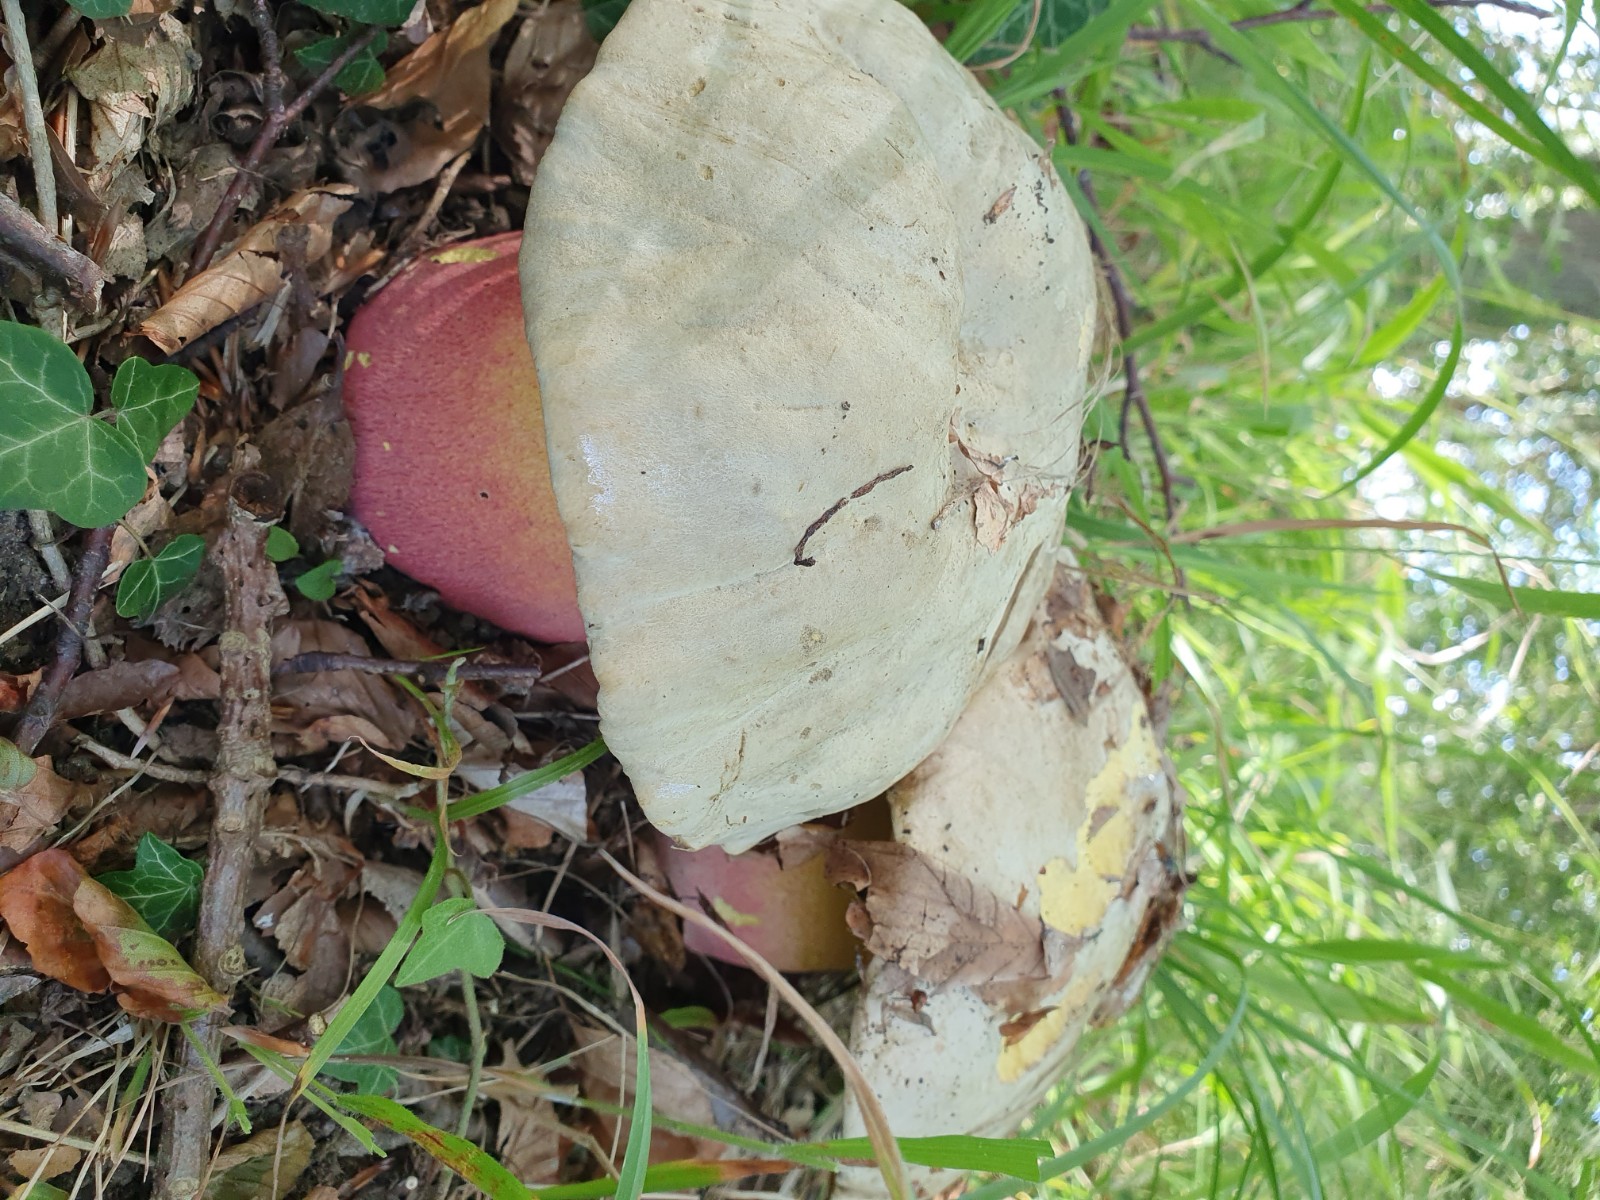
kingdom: Fungi
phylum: Basidiomycota
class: Agaricomycetes
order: Boletales
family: Boletaceae
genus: Rubroboletus
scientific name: Rubroboletus satanas
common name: Satans rørhat
